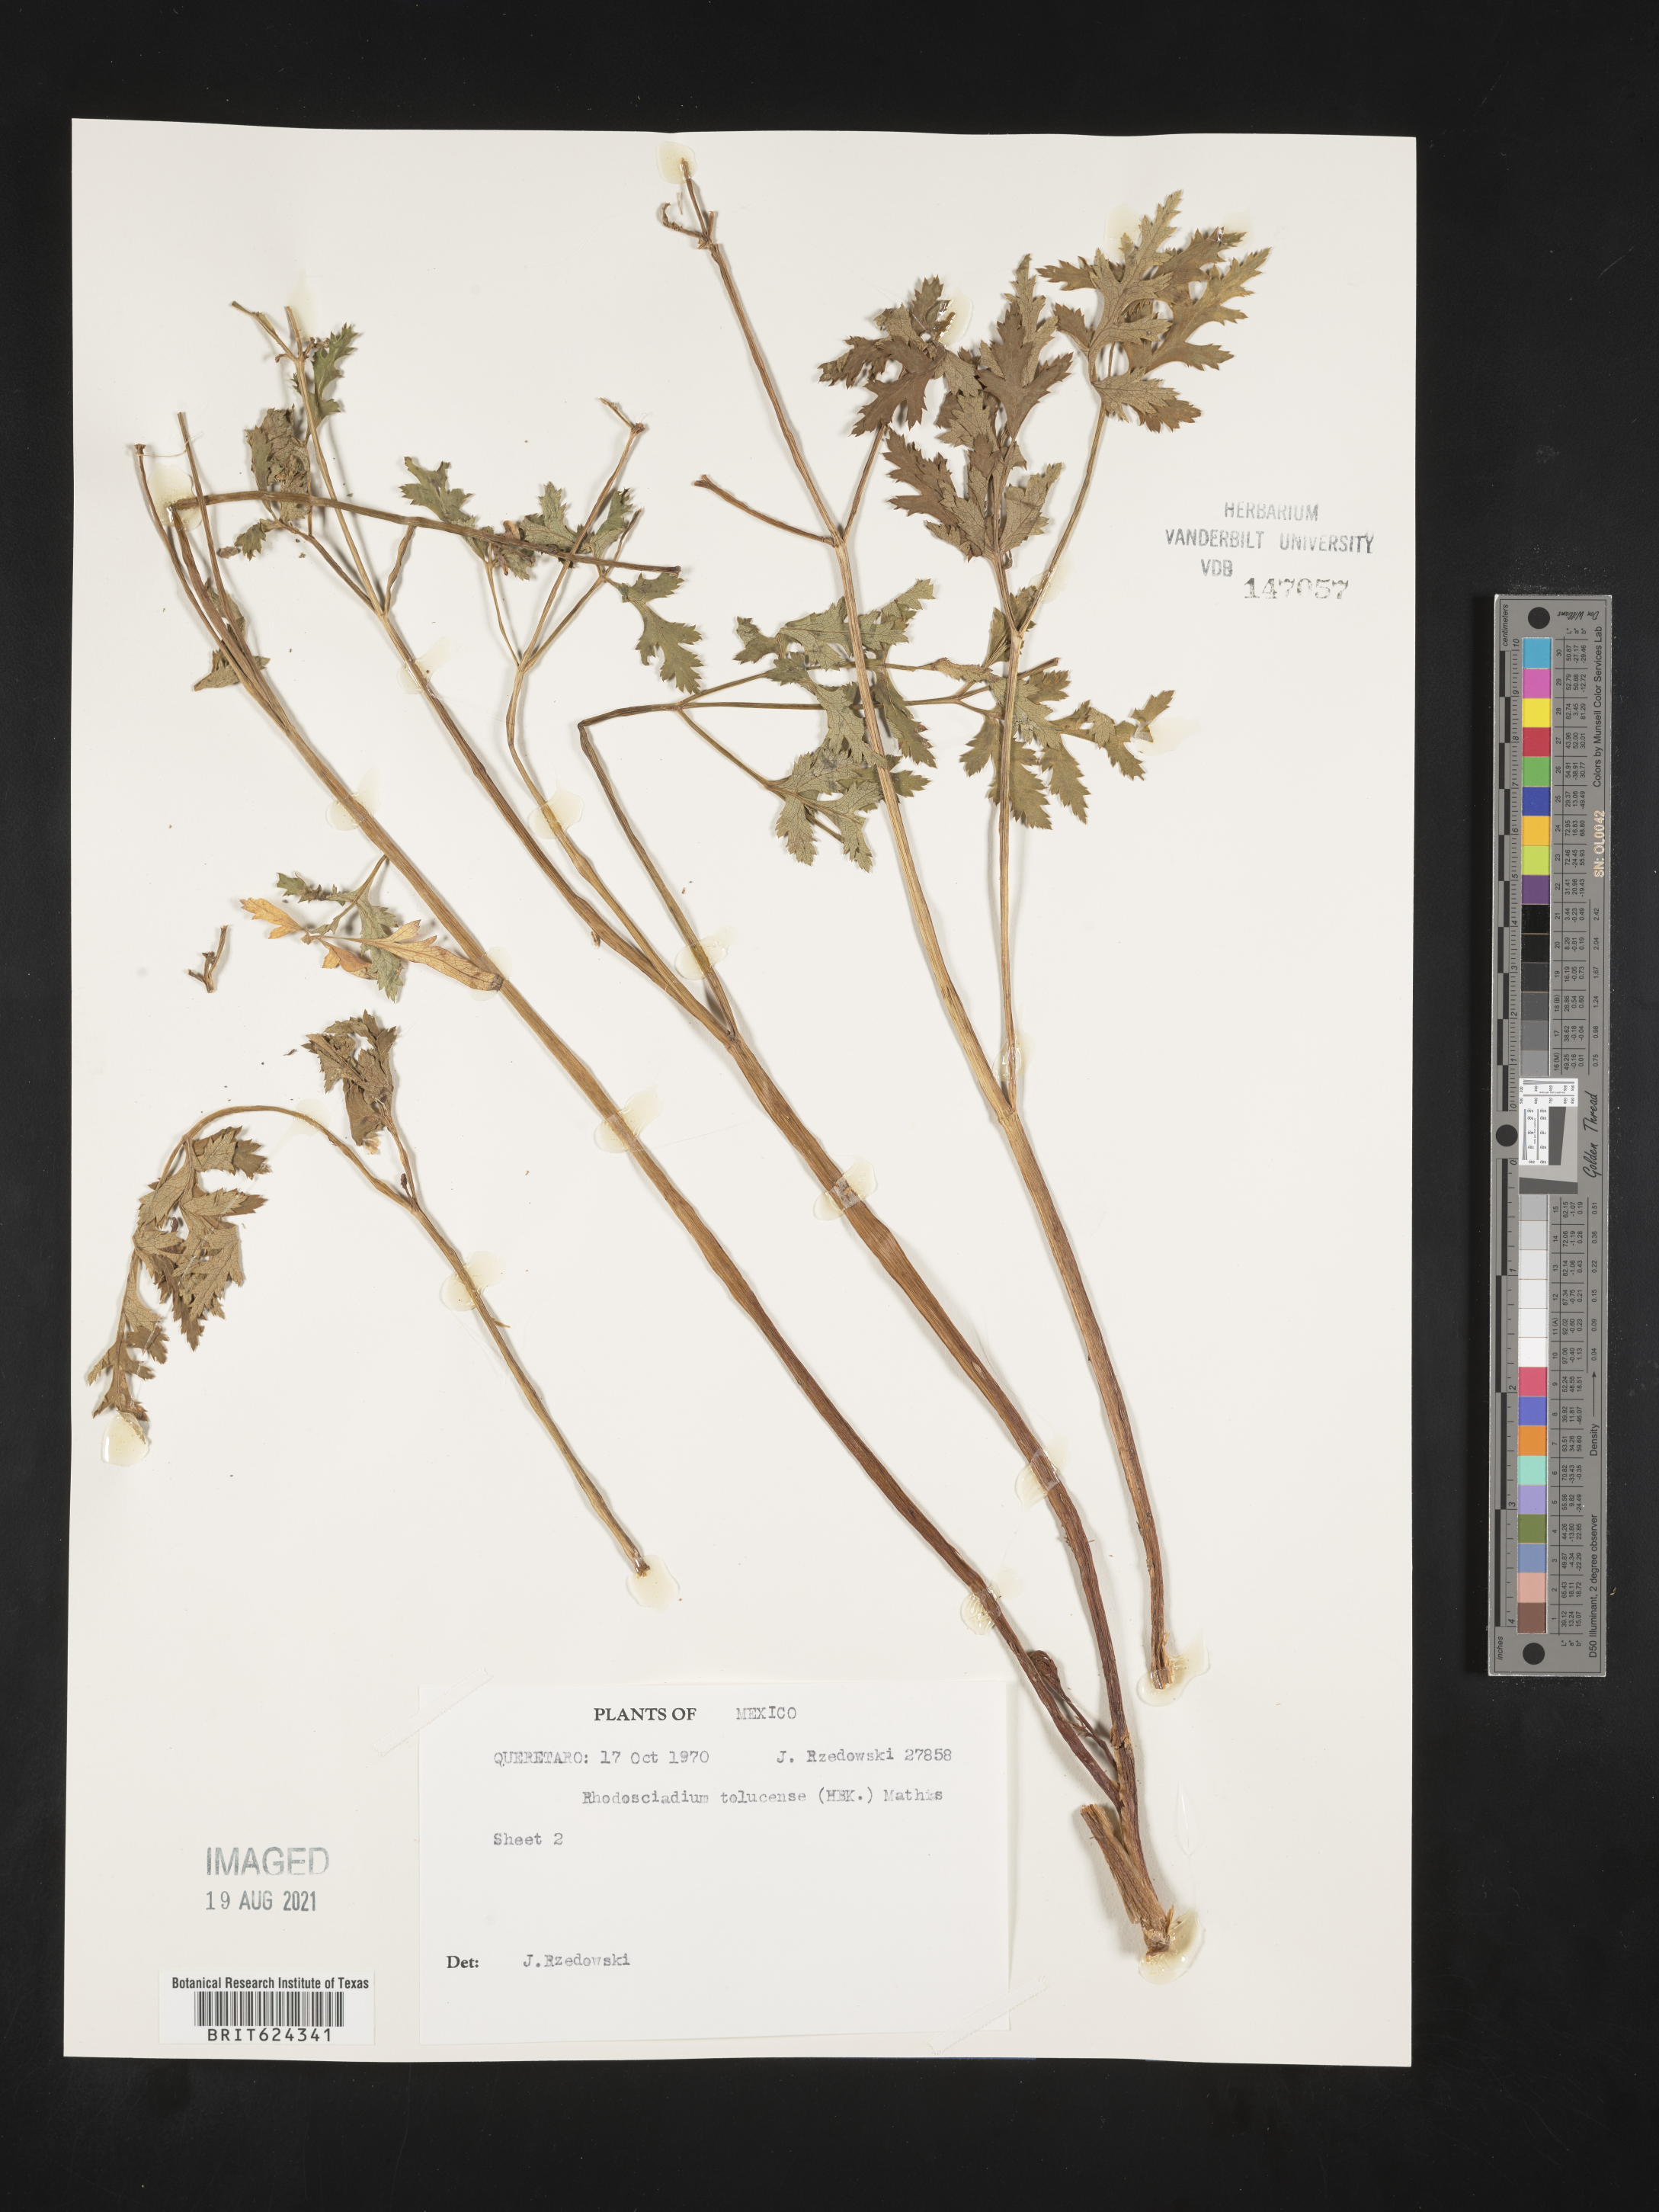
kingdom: Plantae
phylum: Tracheophyta
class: Magnoliopsida
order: Apiales
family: Apiaceae
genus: Rhodosciadium
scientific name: Rhodosciadium
